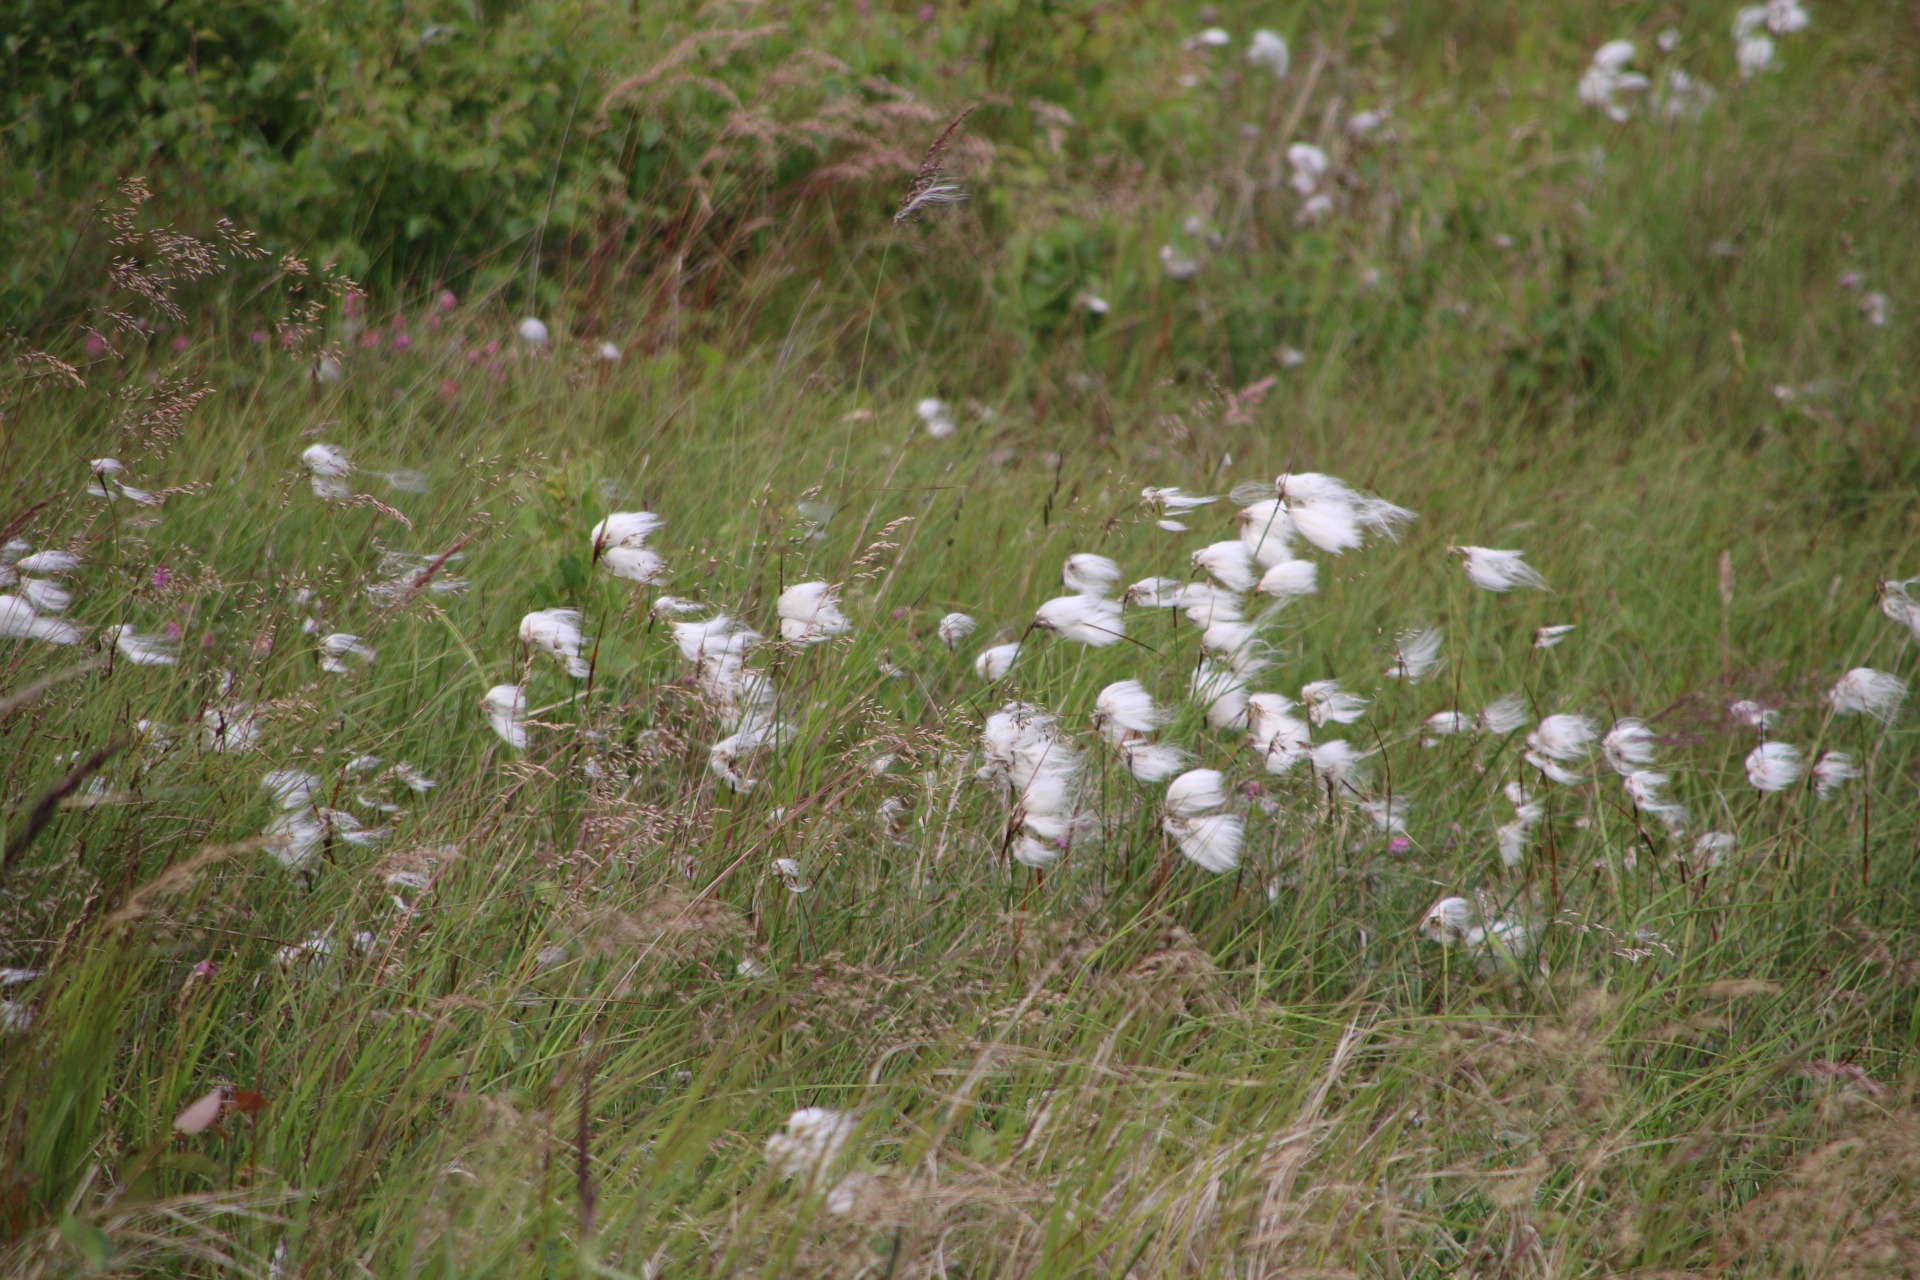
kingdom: Plantae
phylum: Tracheophyta
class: Liliopsida
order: Poales
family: Cyperaceae
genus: Eriophorum
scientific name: Eriophorum angustifolium
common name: Smalbladet kæruld
